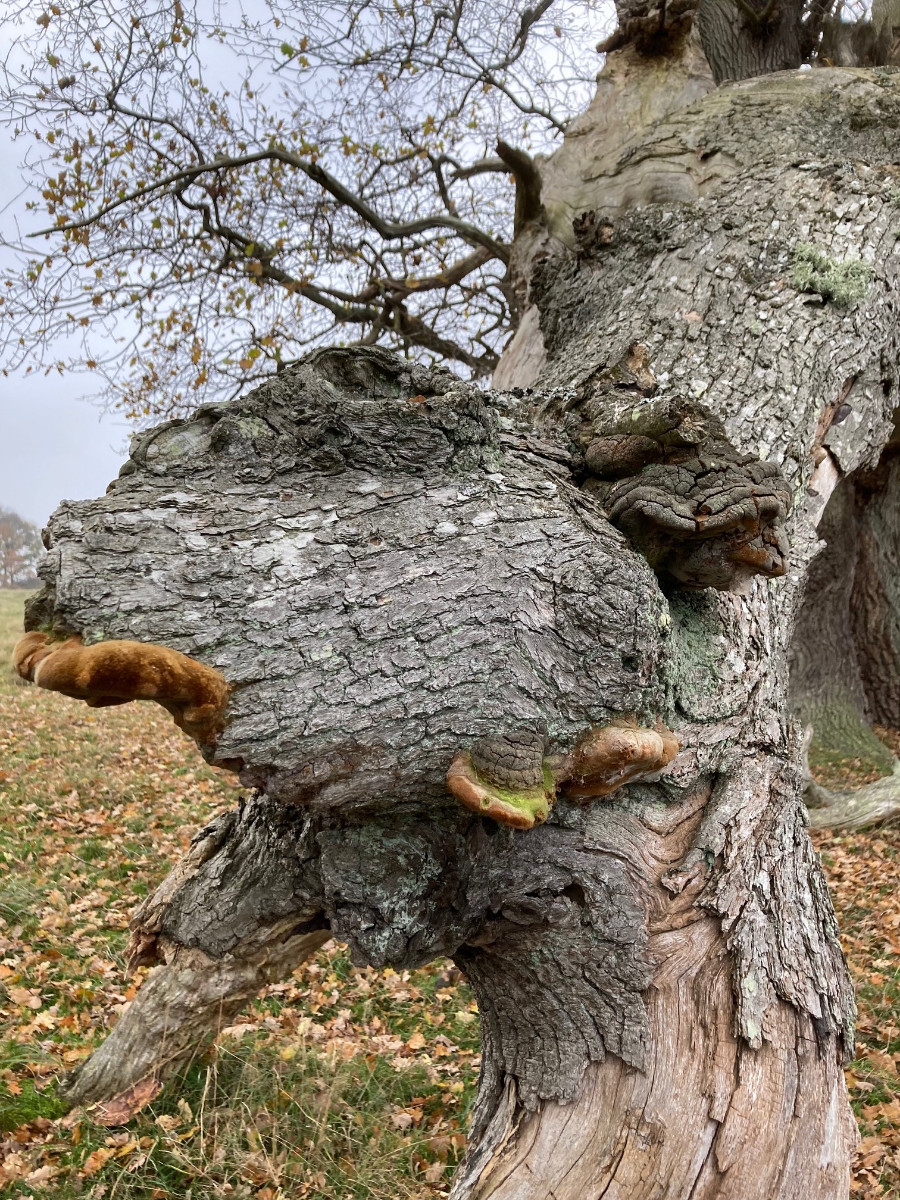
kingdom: Fungi
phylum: Basidiomycota
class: Agaricomycetes
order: Hymenochaetales
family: Hymenochaetaceae
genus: Fomitiporia
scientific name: Fomitiporia robusta
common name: ege-ildporesvamp
